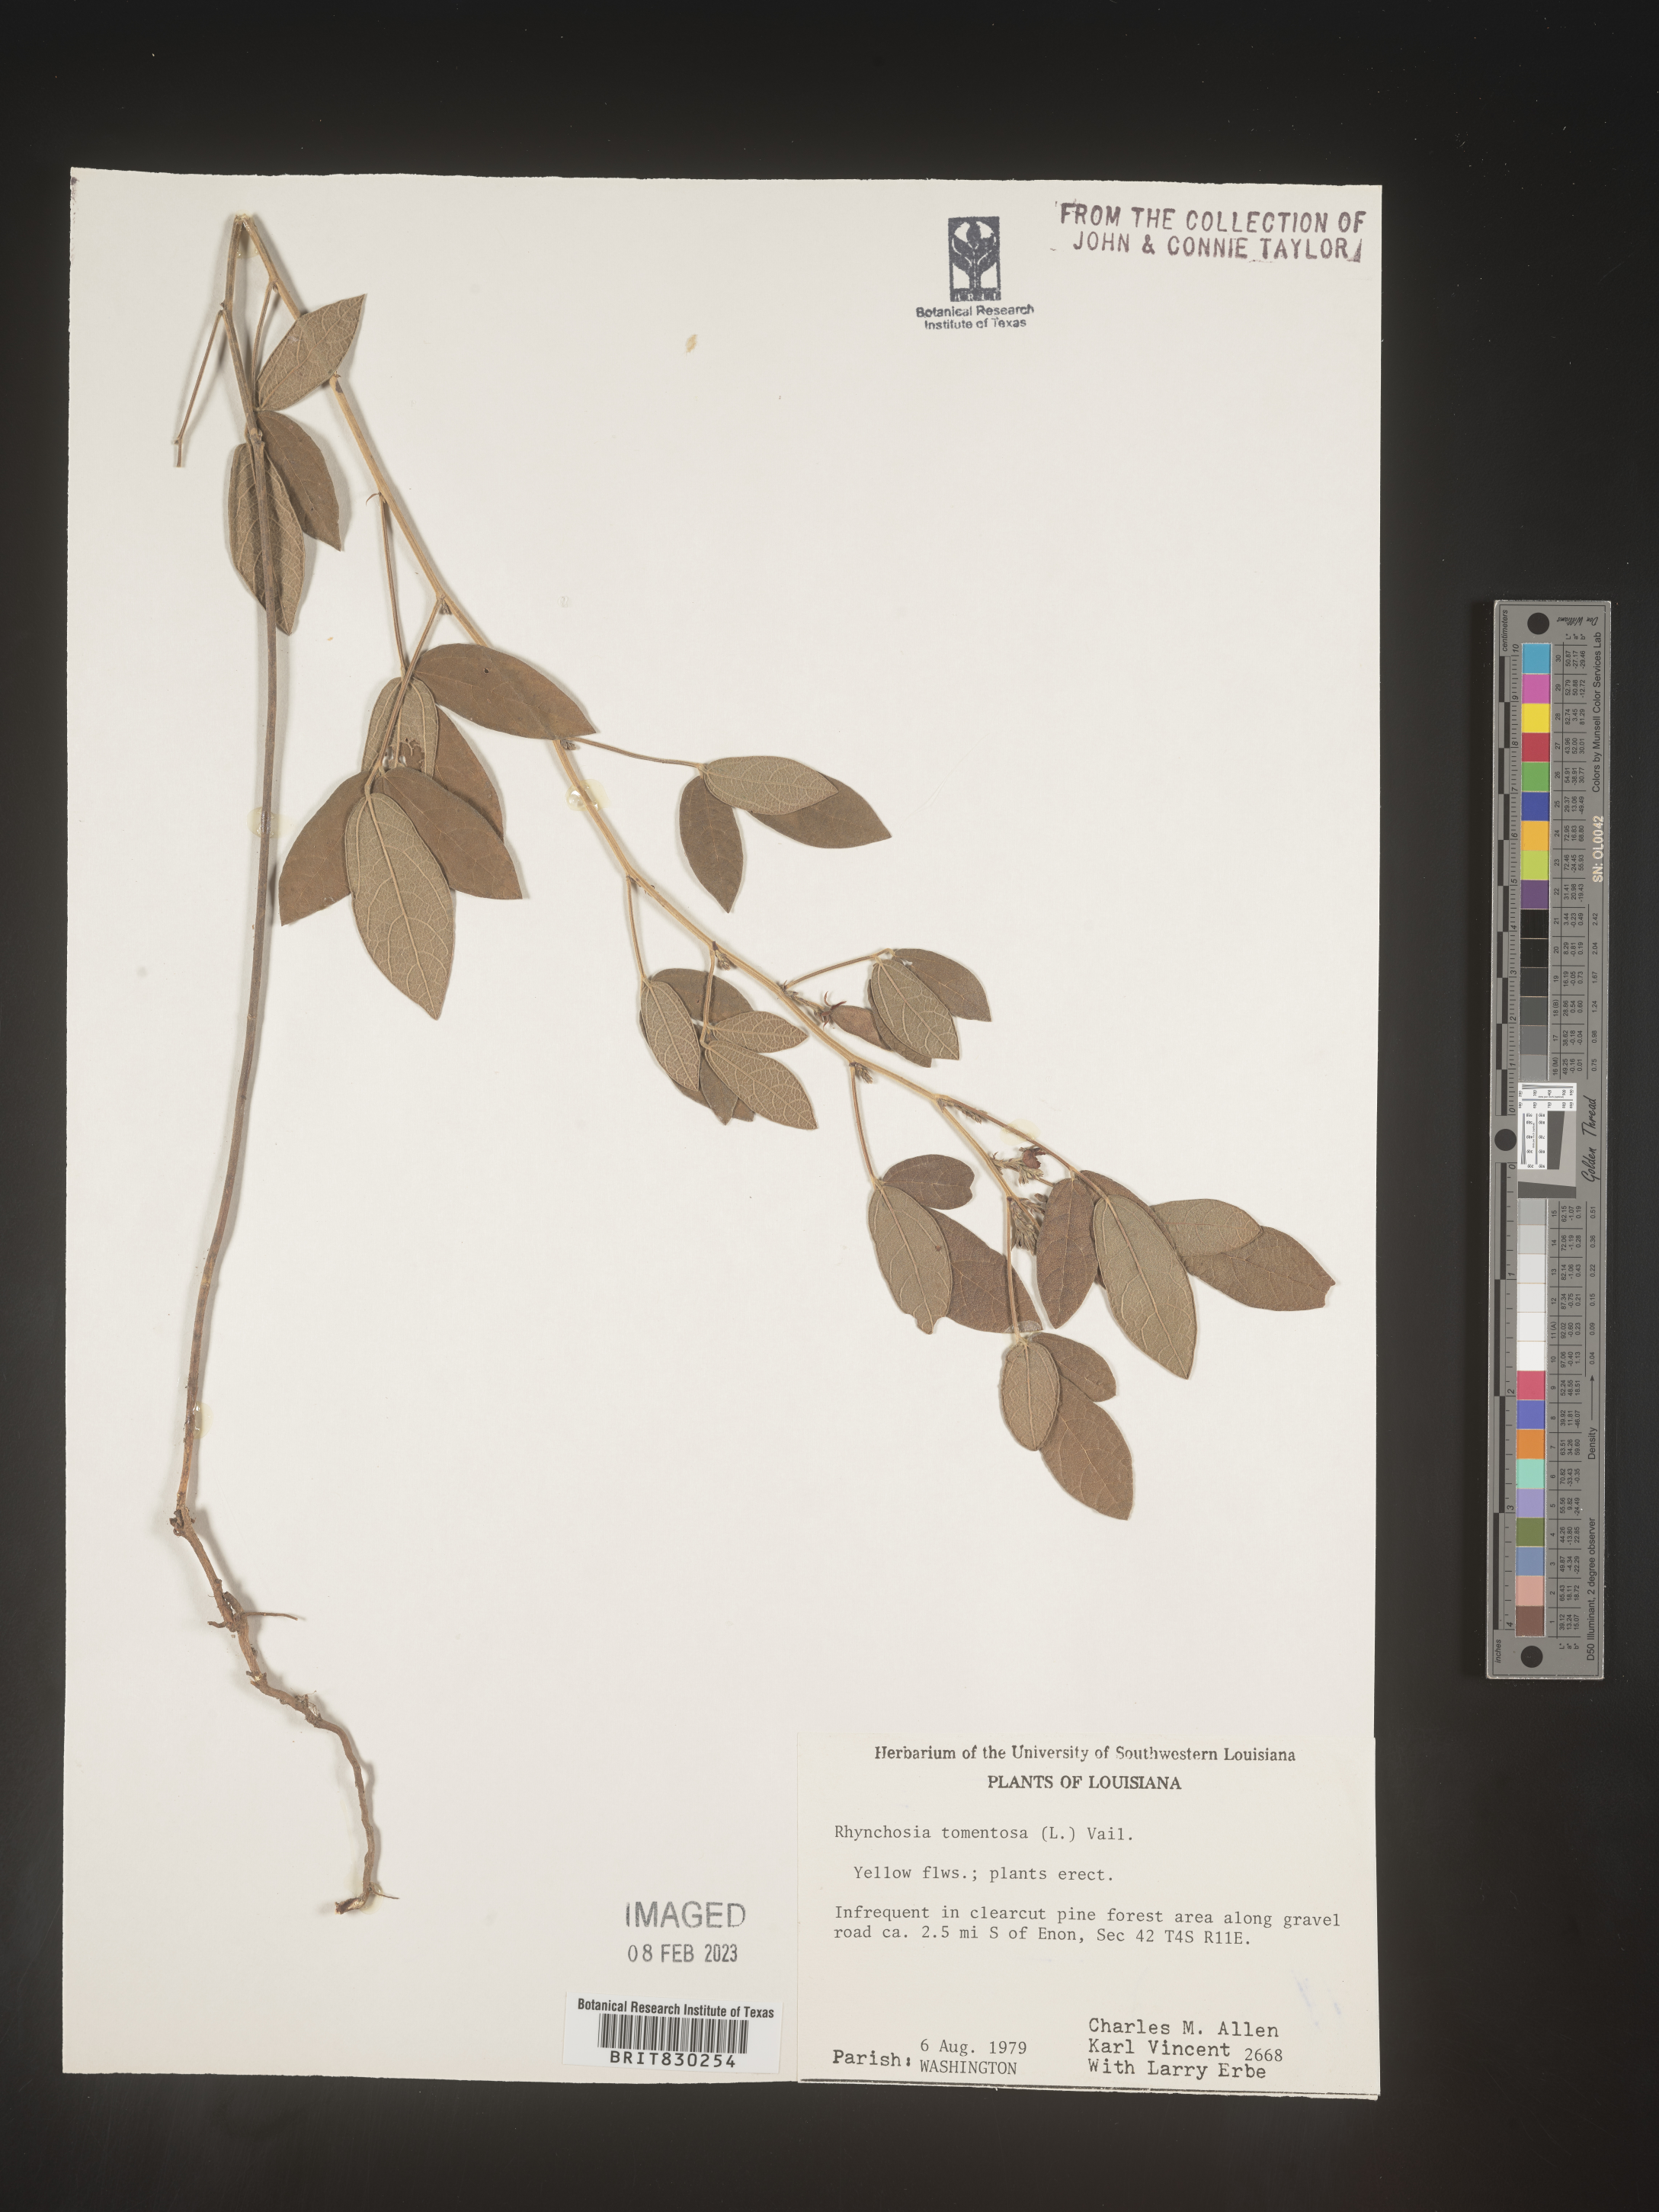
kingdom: Plantae
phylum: Tracheophyta
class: Magnoliopsida
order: Fabales
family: Fabaceae
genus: Rhynchosia
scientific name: Rhynchosia rothii
